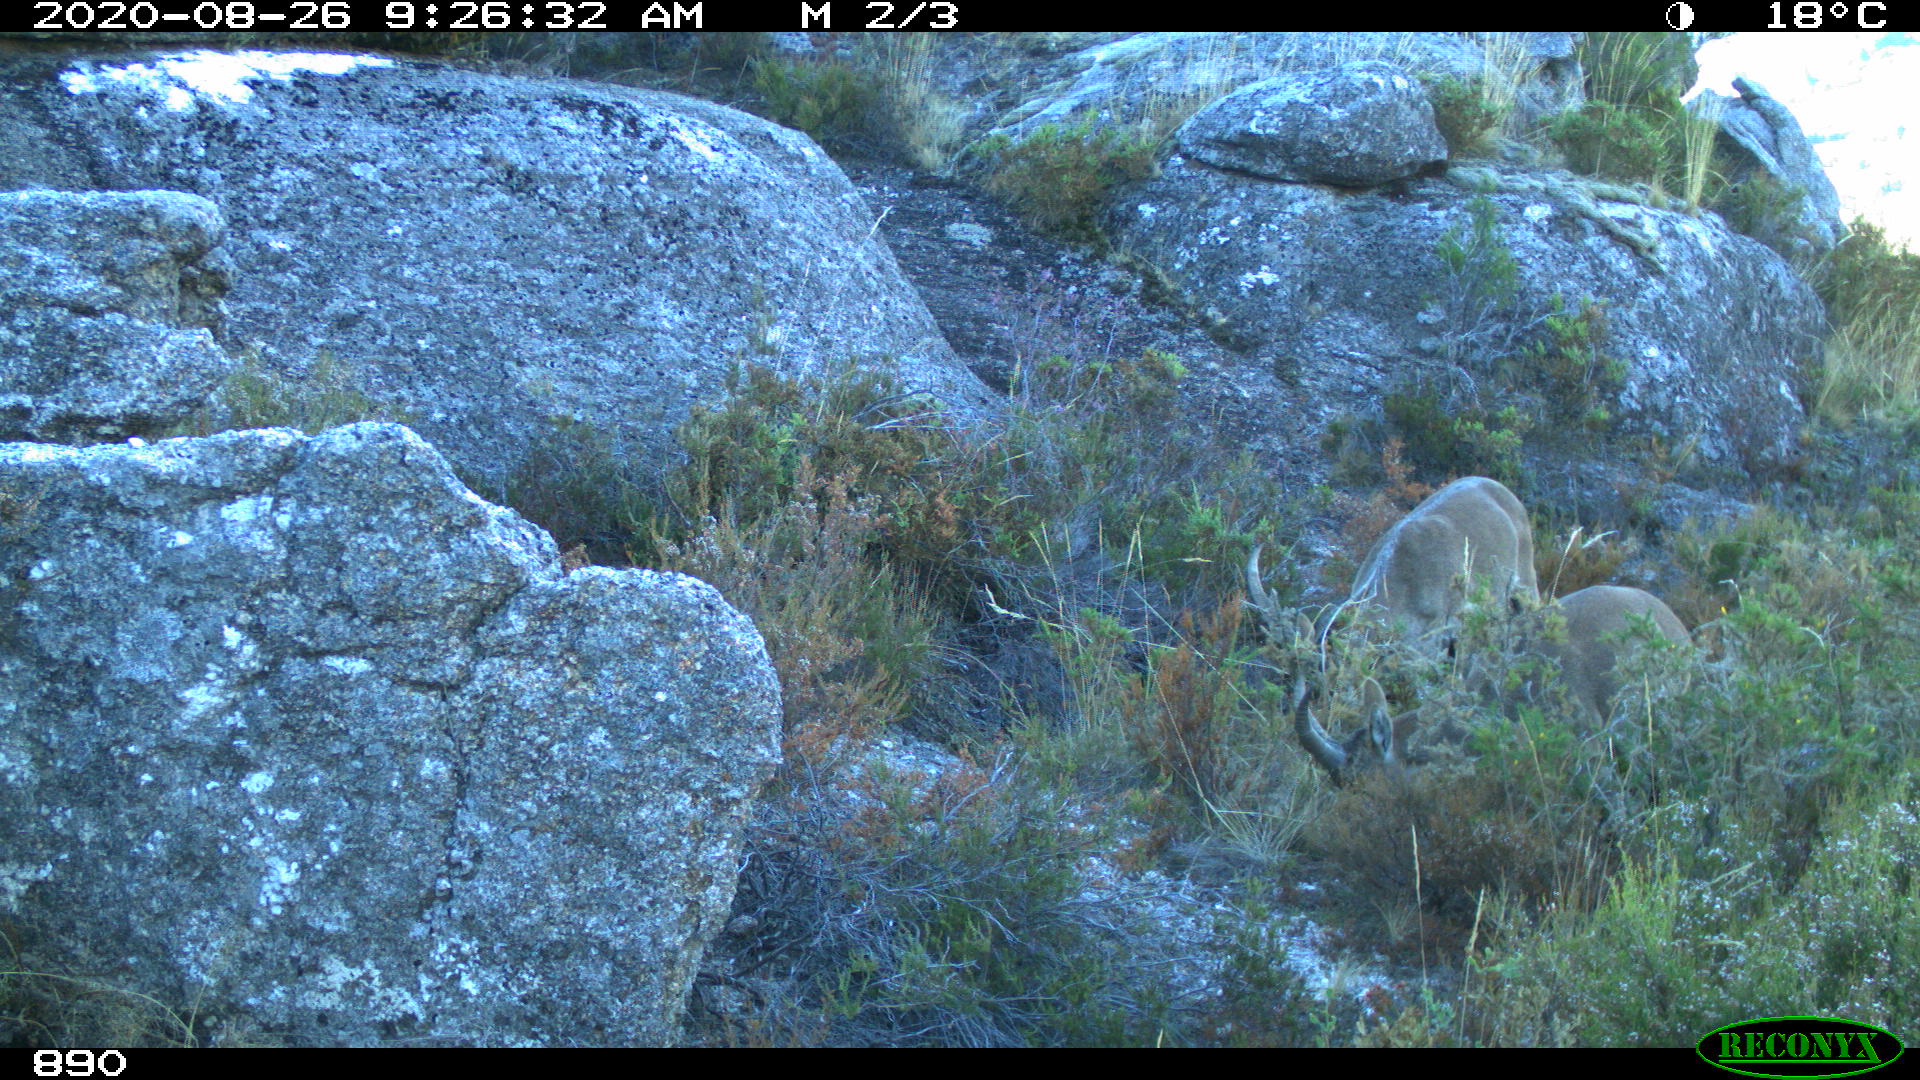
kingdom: Animalia
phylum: Chordata
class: Mammalia
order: Artiodactyla
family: Bovidae
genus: Capra
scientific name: Capra pyrenaica
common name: Spanish ibex
